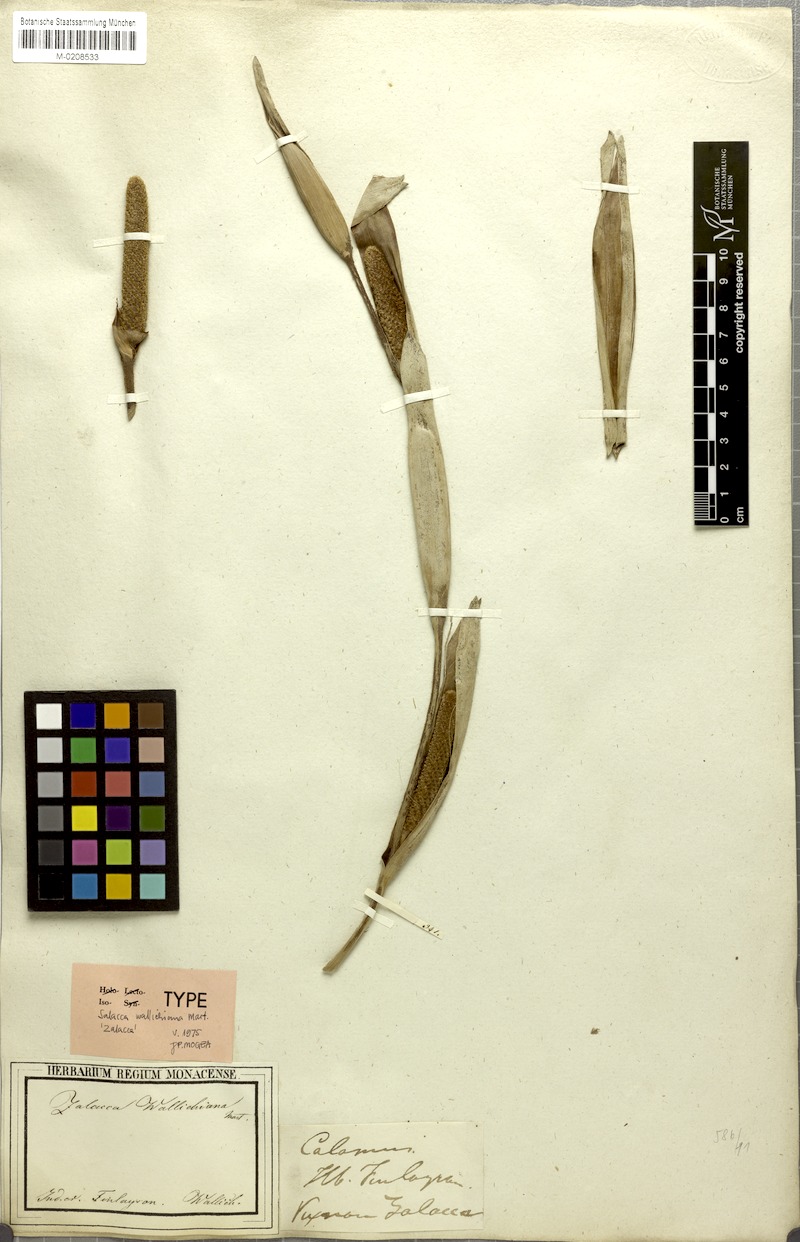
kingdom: Plantae
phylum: Tracheophyta
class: Liliopsida
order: Arecales
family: Arecaceae
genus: Salacca
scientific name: Salacca wallichiana
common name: Rakum palm
